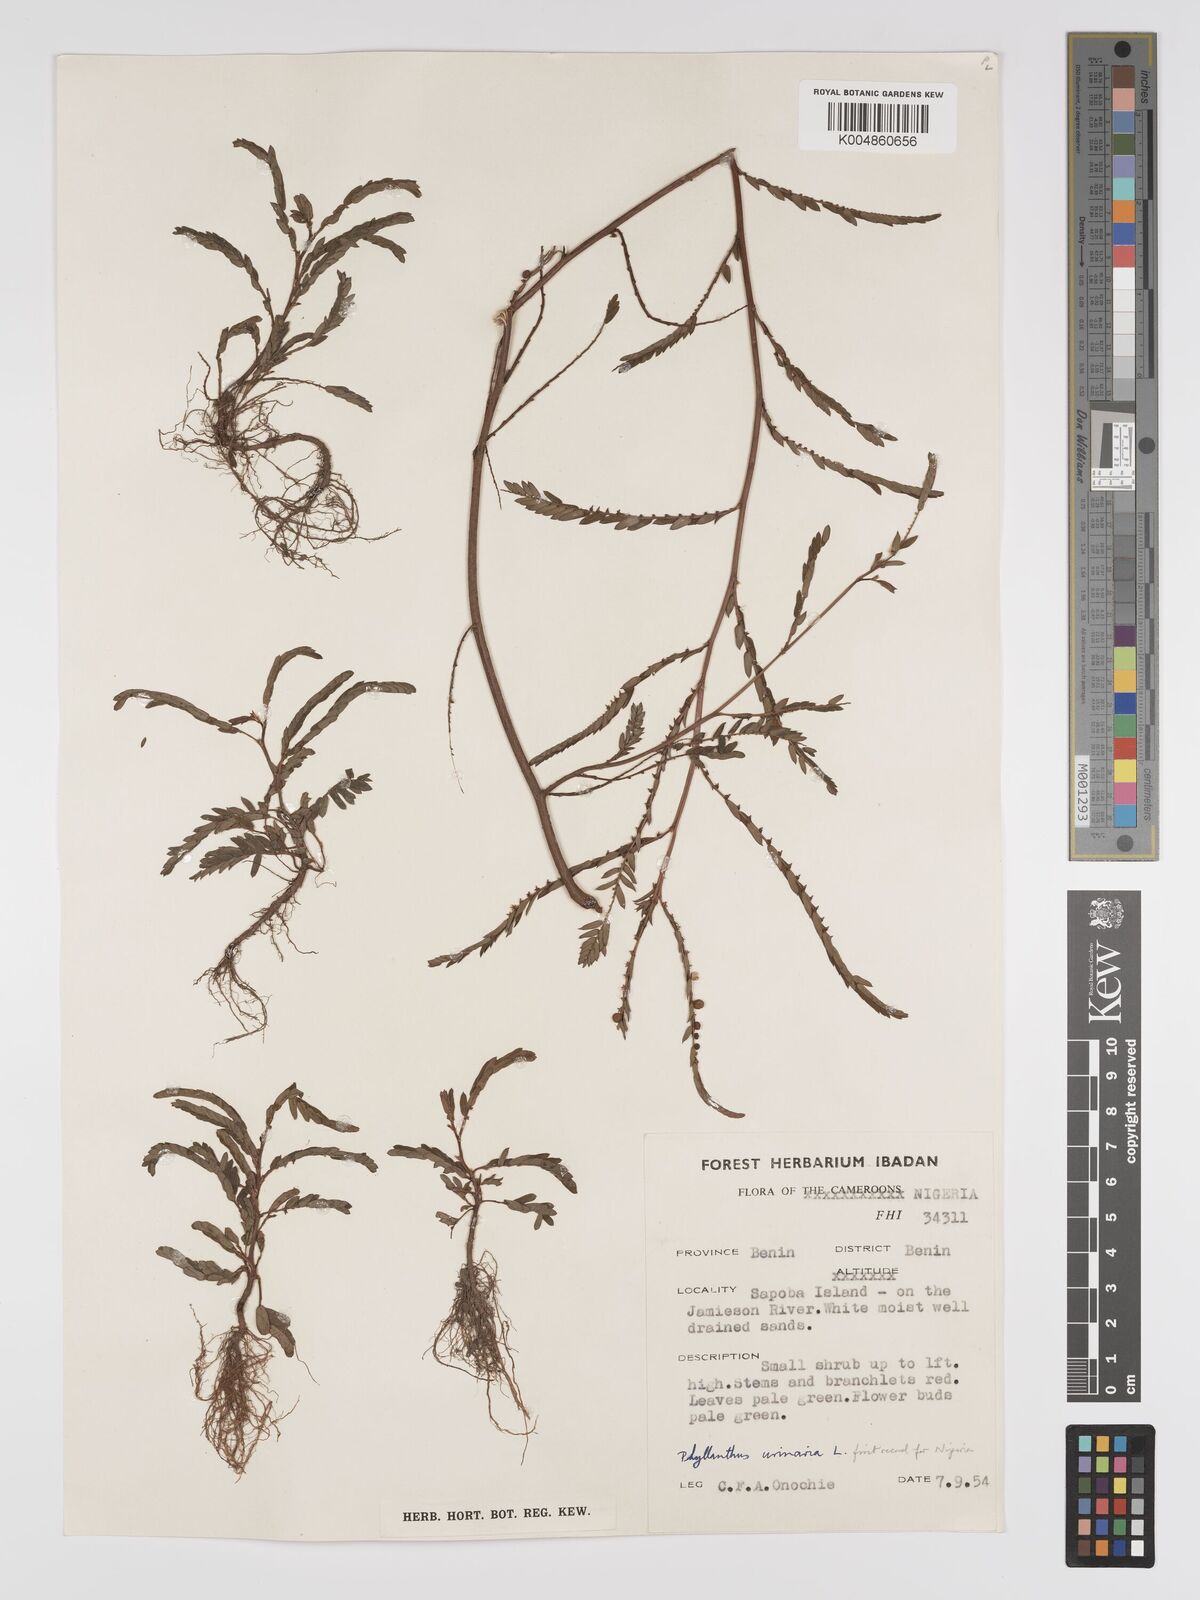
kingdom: Plantae
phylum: Tracheophyta
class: Magnoliopsida
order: Malpighiales
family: Phyllanthaceae
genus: Phyllanthus
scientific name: Phyllanthus urinaria
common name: Chamber bitter
